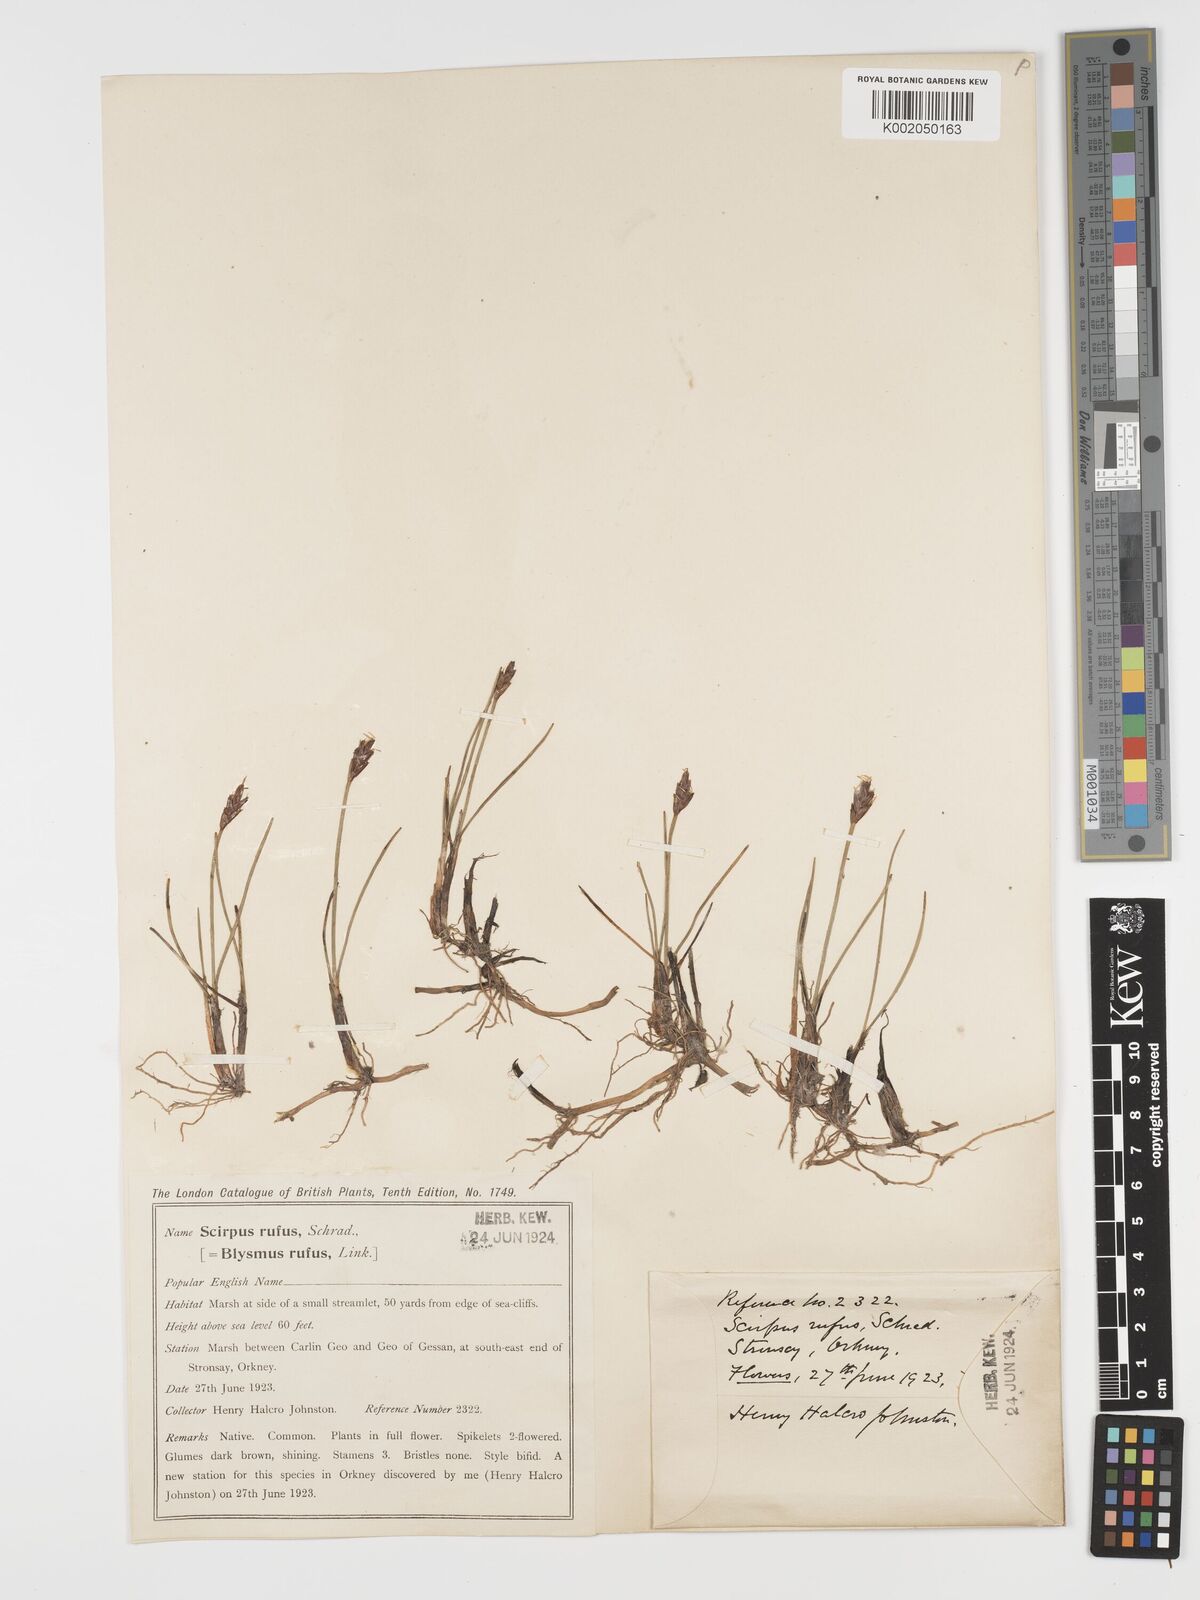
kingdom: Plantae
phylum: Tracheophyta
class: Liliopsida
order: Poales
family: Cyperaceae
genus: Blysmus
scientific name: Blysmus rufus
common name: Saltmarsh flat-sedge
